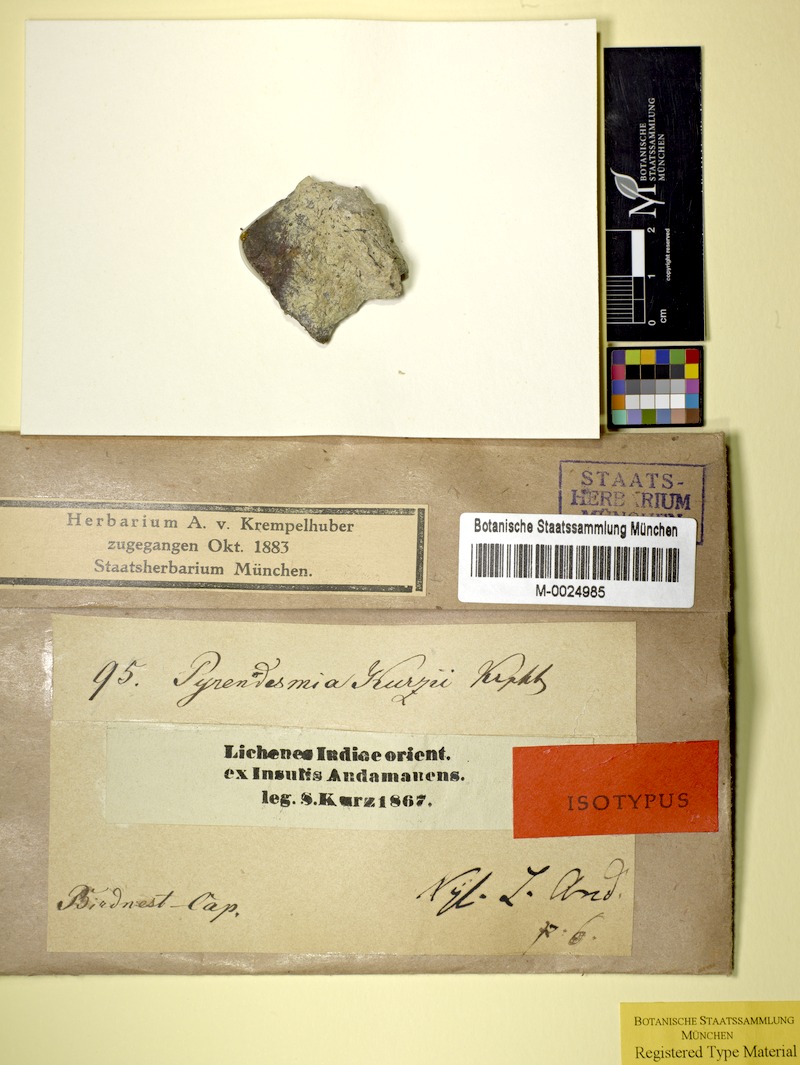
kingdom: Fungi
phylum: Ascomycota
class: Lecanoromycetes
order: Teloschistales
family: Teloschistaceae
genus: Caloplaca
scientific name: Caloplaca kurzii
